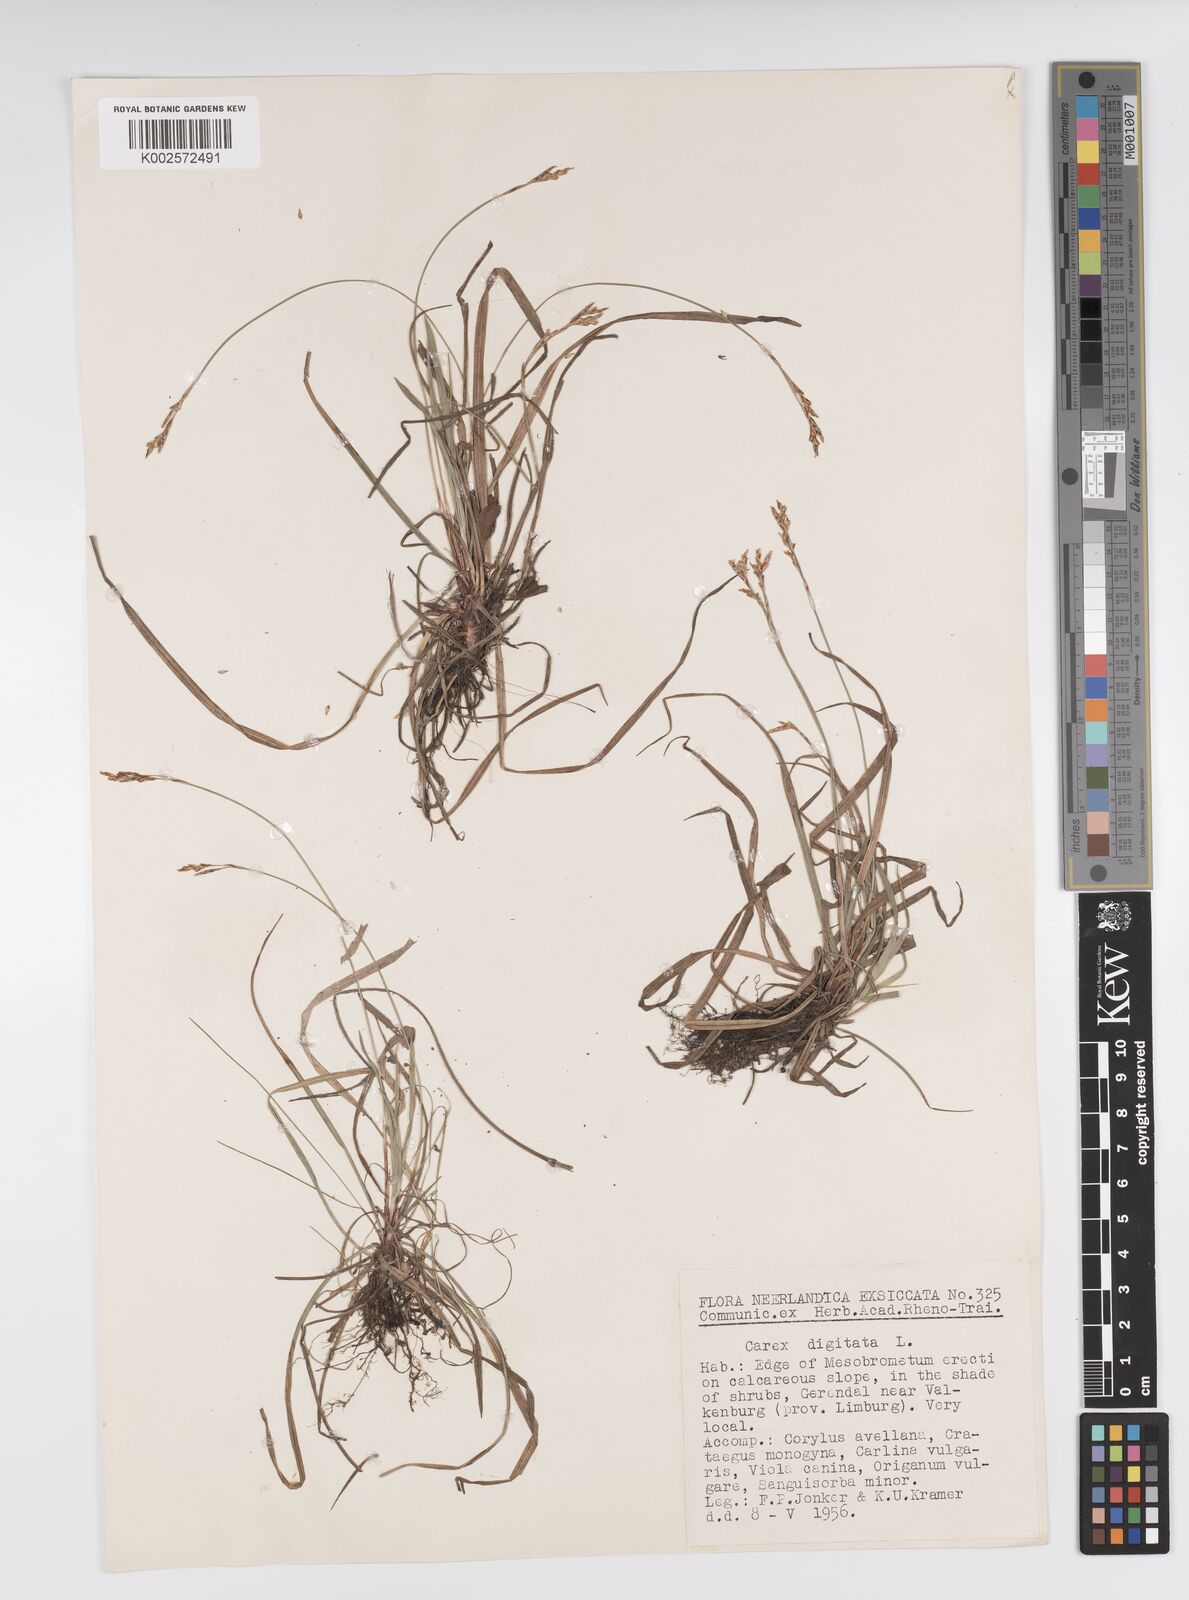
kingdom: Plantae
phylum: Tracheophyta
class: Liliopsida
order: Poales
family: Cyperaceae
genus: Carex
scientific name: Carex digitata
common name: Fingered sedge
